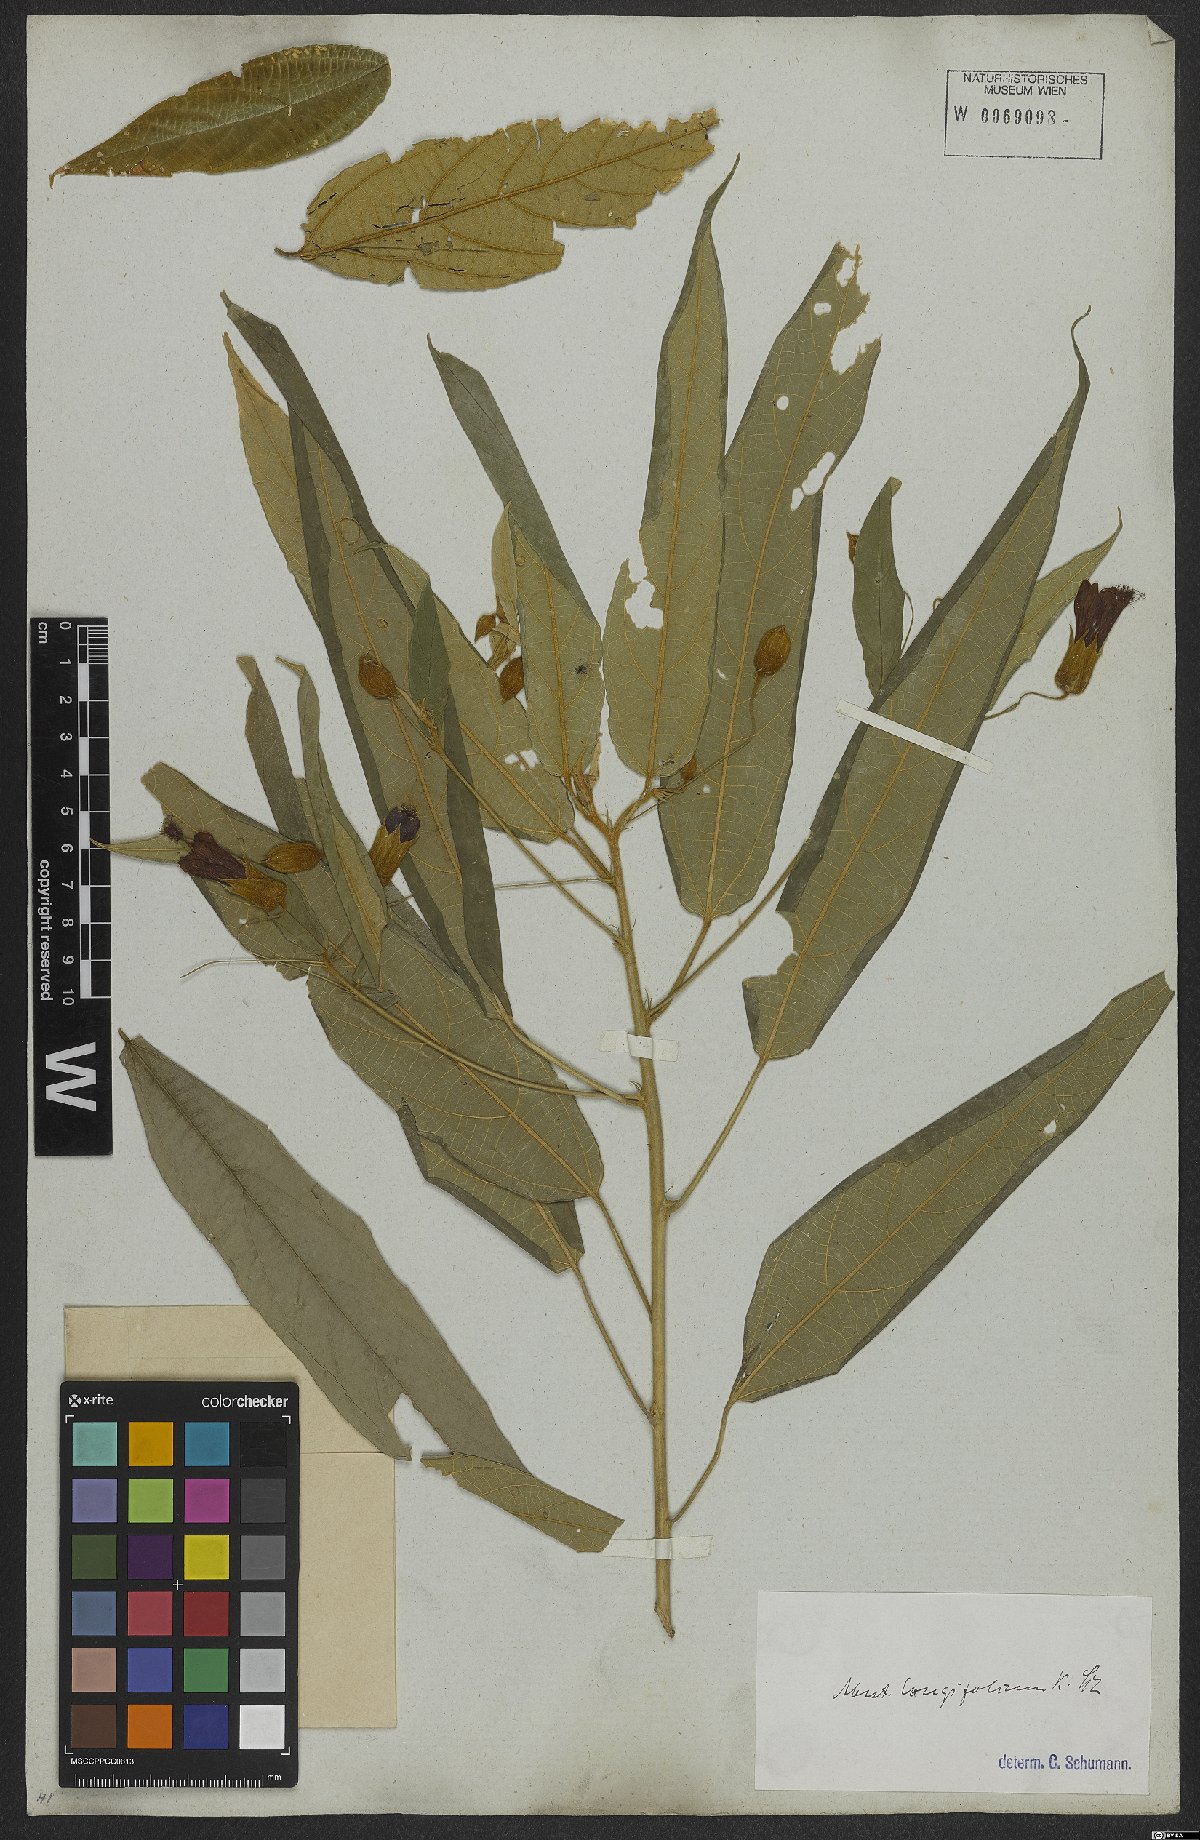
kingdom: Plantae
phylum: Tracheophyta
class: Magnoliopsida
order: Malvales
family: Malvaceae
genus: Callianthe
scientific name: Callianthe longifolia
